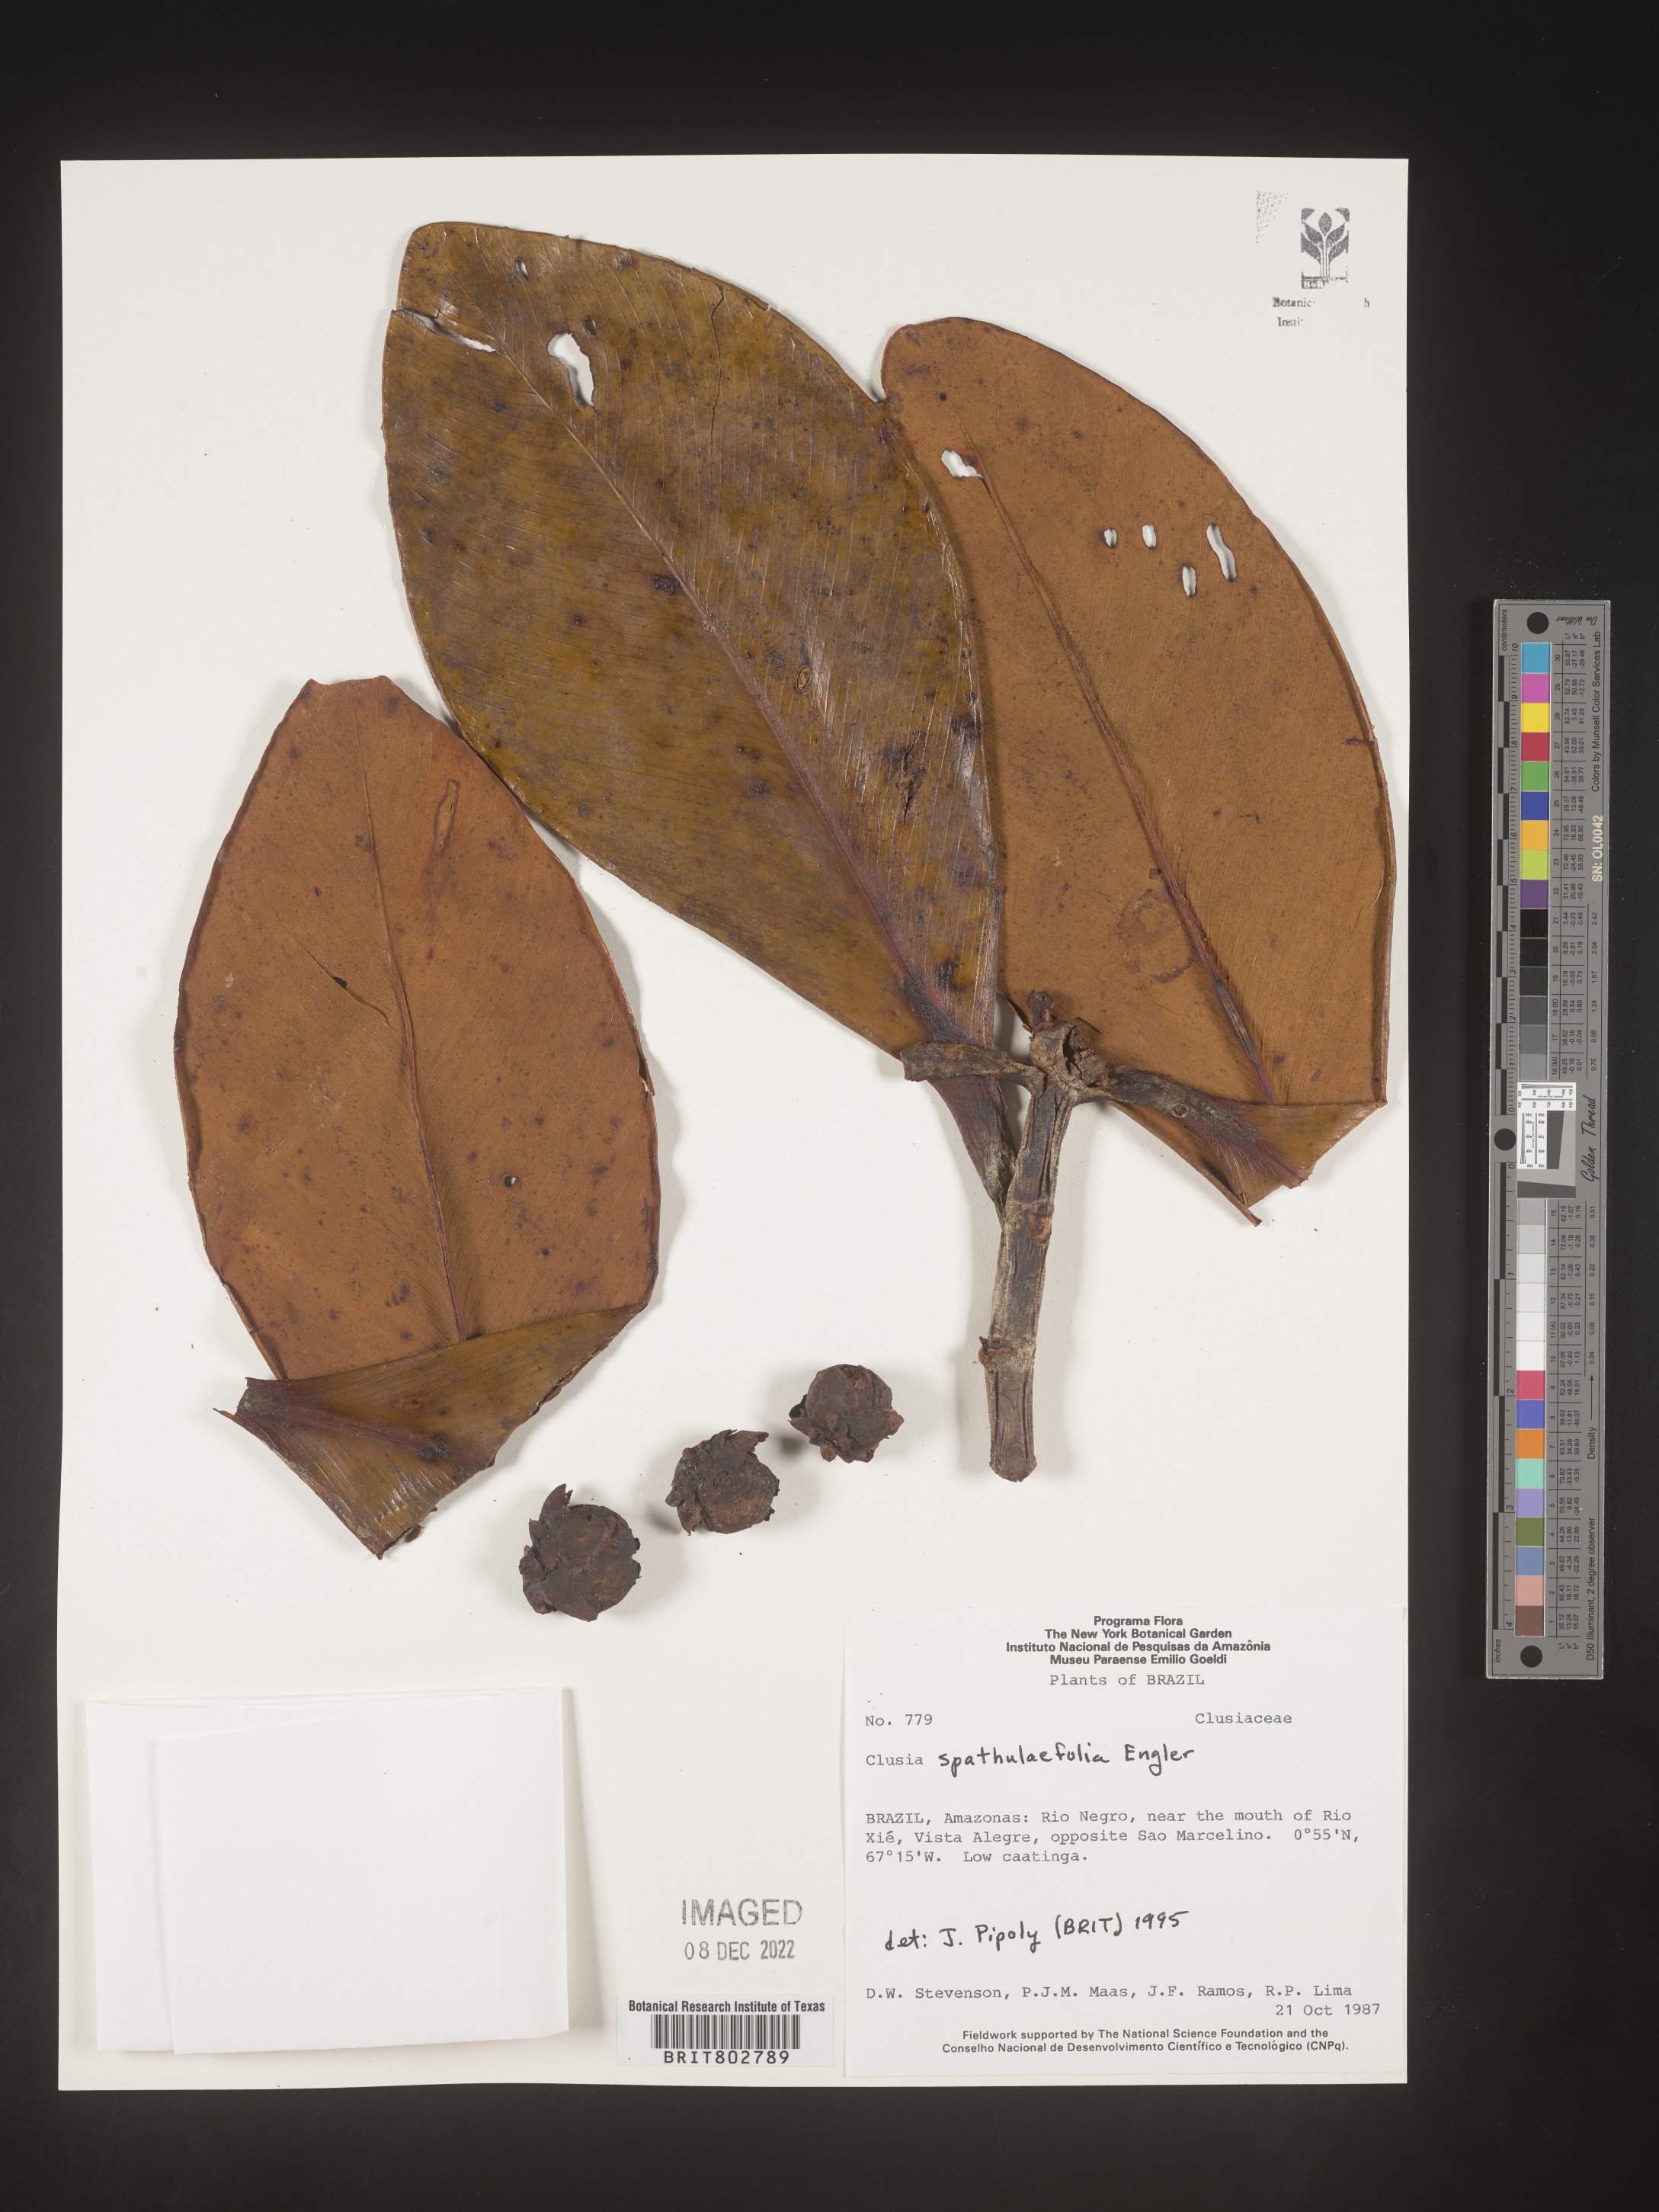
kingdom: Plantae
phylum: Tracheophyta
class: Magnoliopsida
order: Malpighiales
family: Clusiaceae
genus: Clusia
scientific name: Clusia spathulifolia
